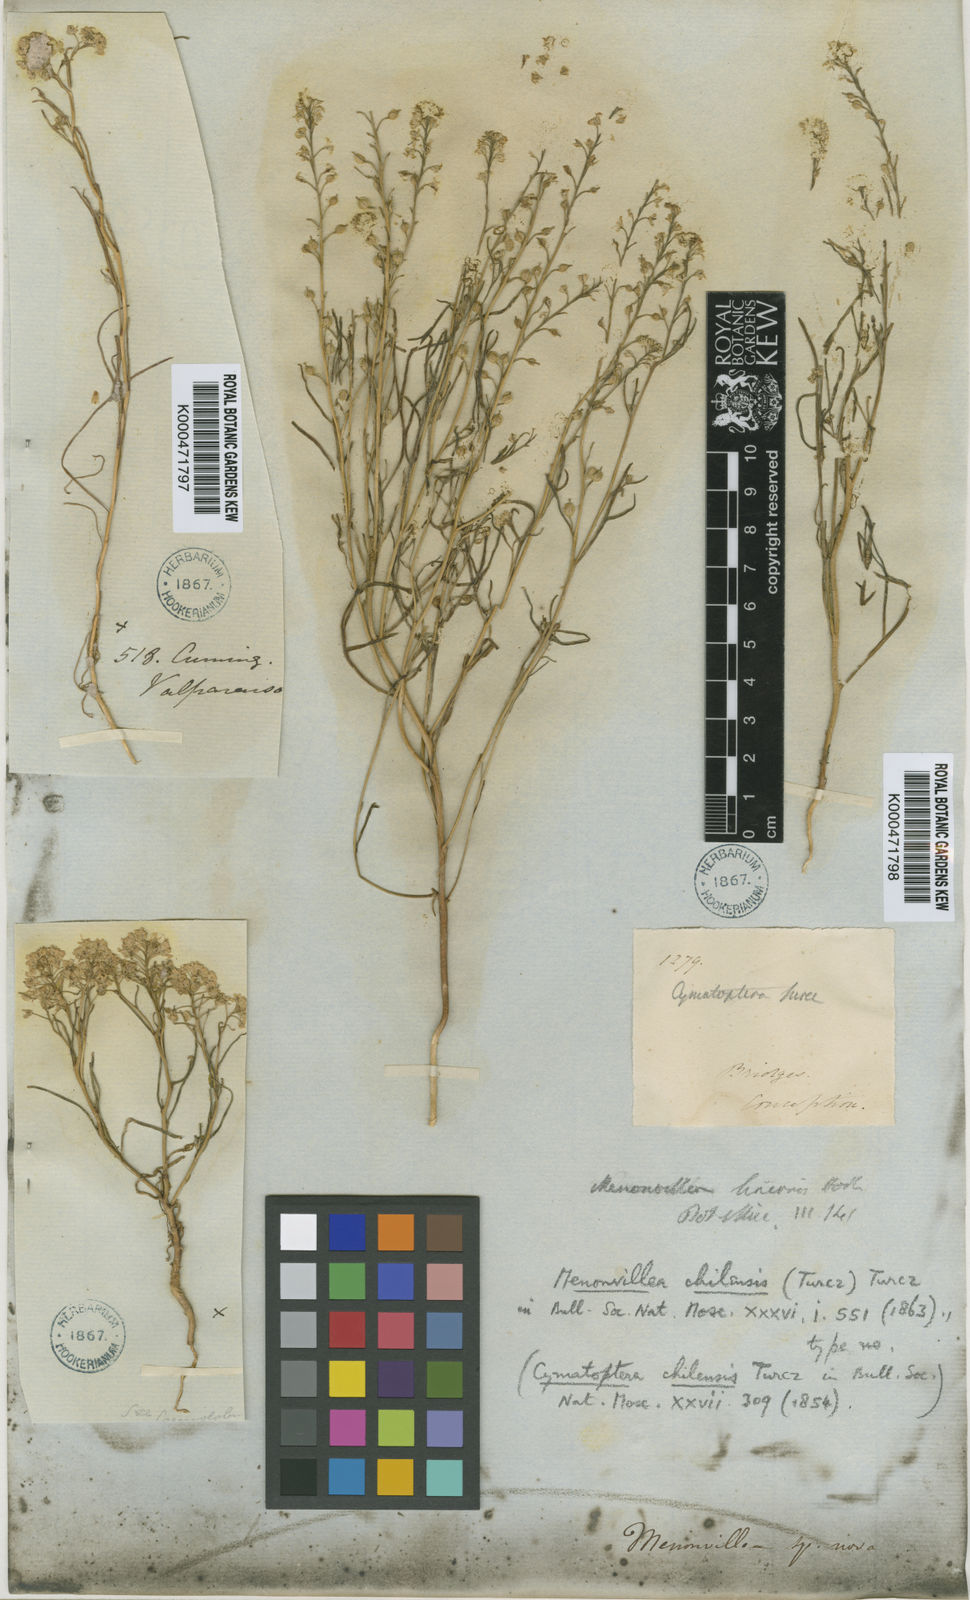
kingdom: Plantae
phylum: Tracheophyta
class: Magnoliopsida
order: Brassicales
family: Brassicaceae
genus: Menonvillea
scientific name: Menonvillea chilensis
